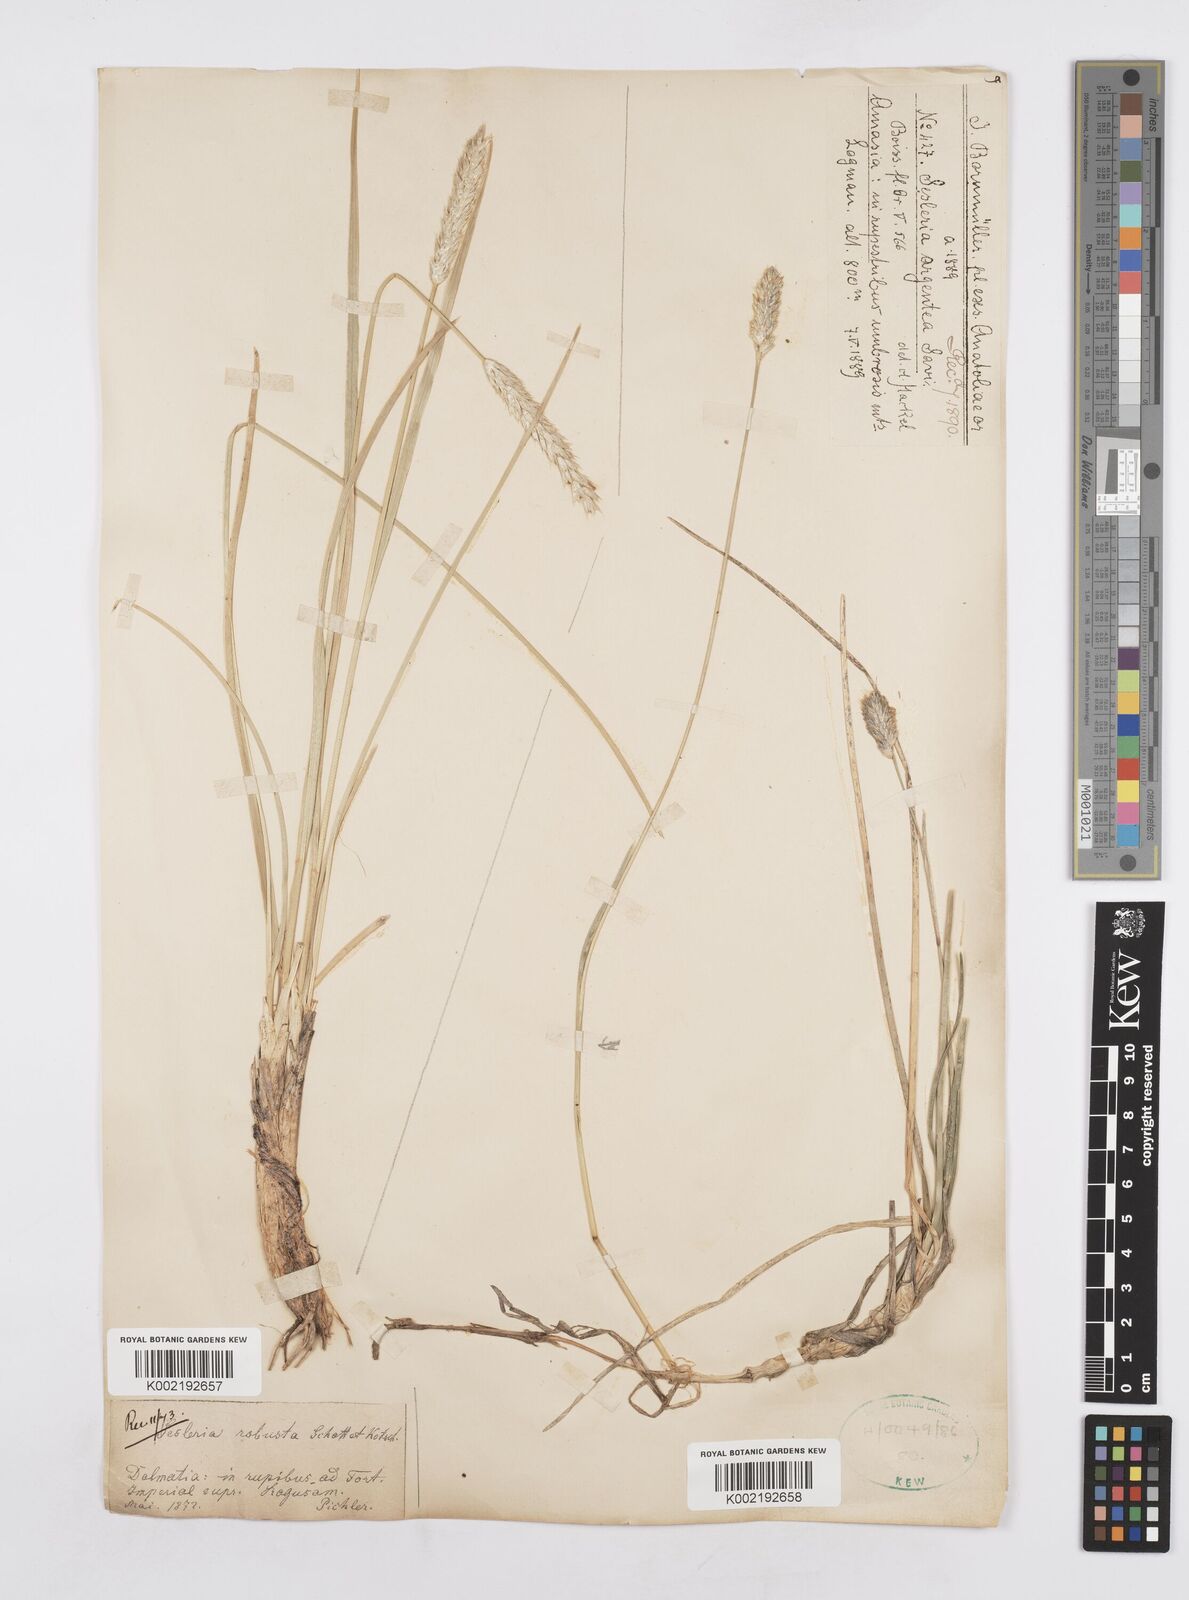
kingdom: Plantae
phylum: Tracheophyta
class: Liliopsida
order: Poales
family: Poaceae
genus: Sesleria
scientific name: Sesleria robusta
